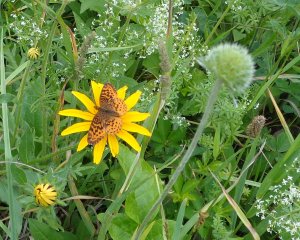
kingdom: Animalia
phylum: Arthropoda
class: Insecta
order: Lepidoptera
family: Nymphalidae
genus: Clossiana
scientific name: Clossiana toddi
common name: Meadow Fritillary
